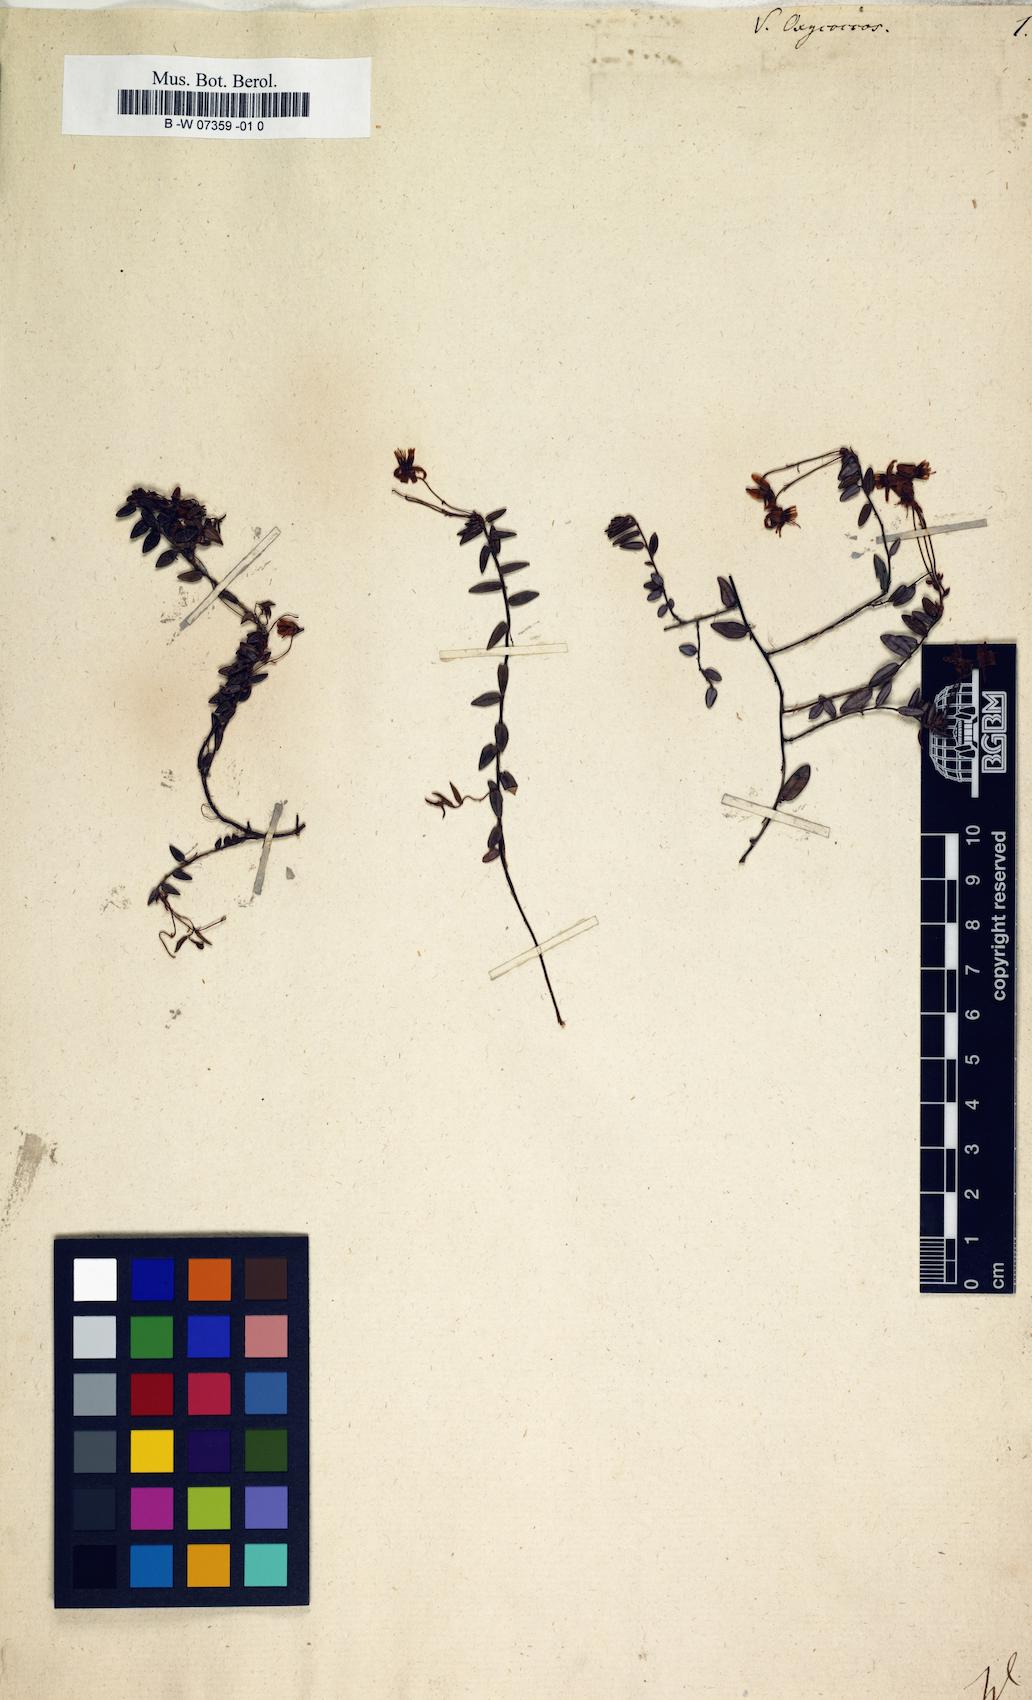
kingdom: Plantae
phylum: Tracheophyta
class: Magnoliopsida
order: Ericales
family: Ericaceae
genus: Vaccinium
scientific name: Vaccinium oxycoccos
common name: Cranberry
